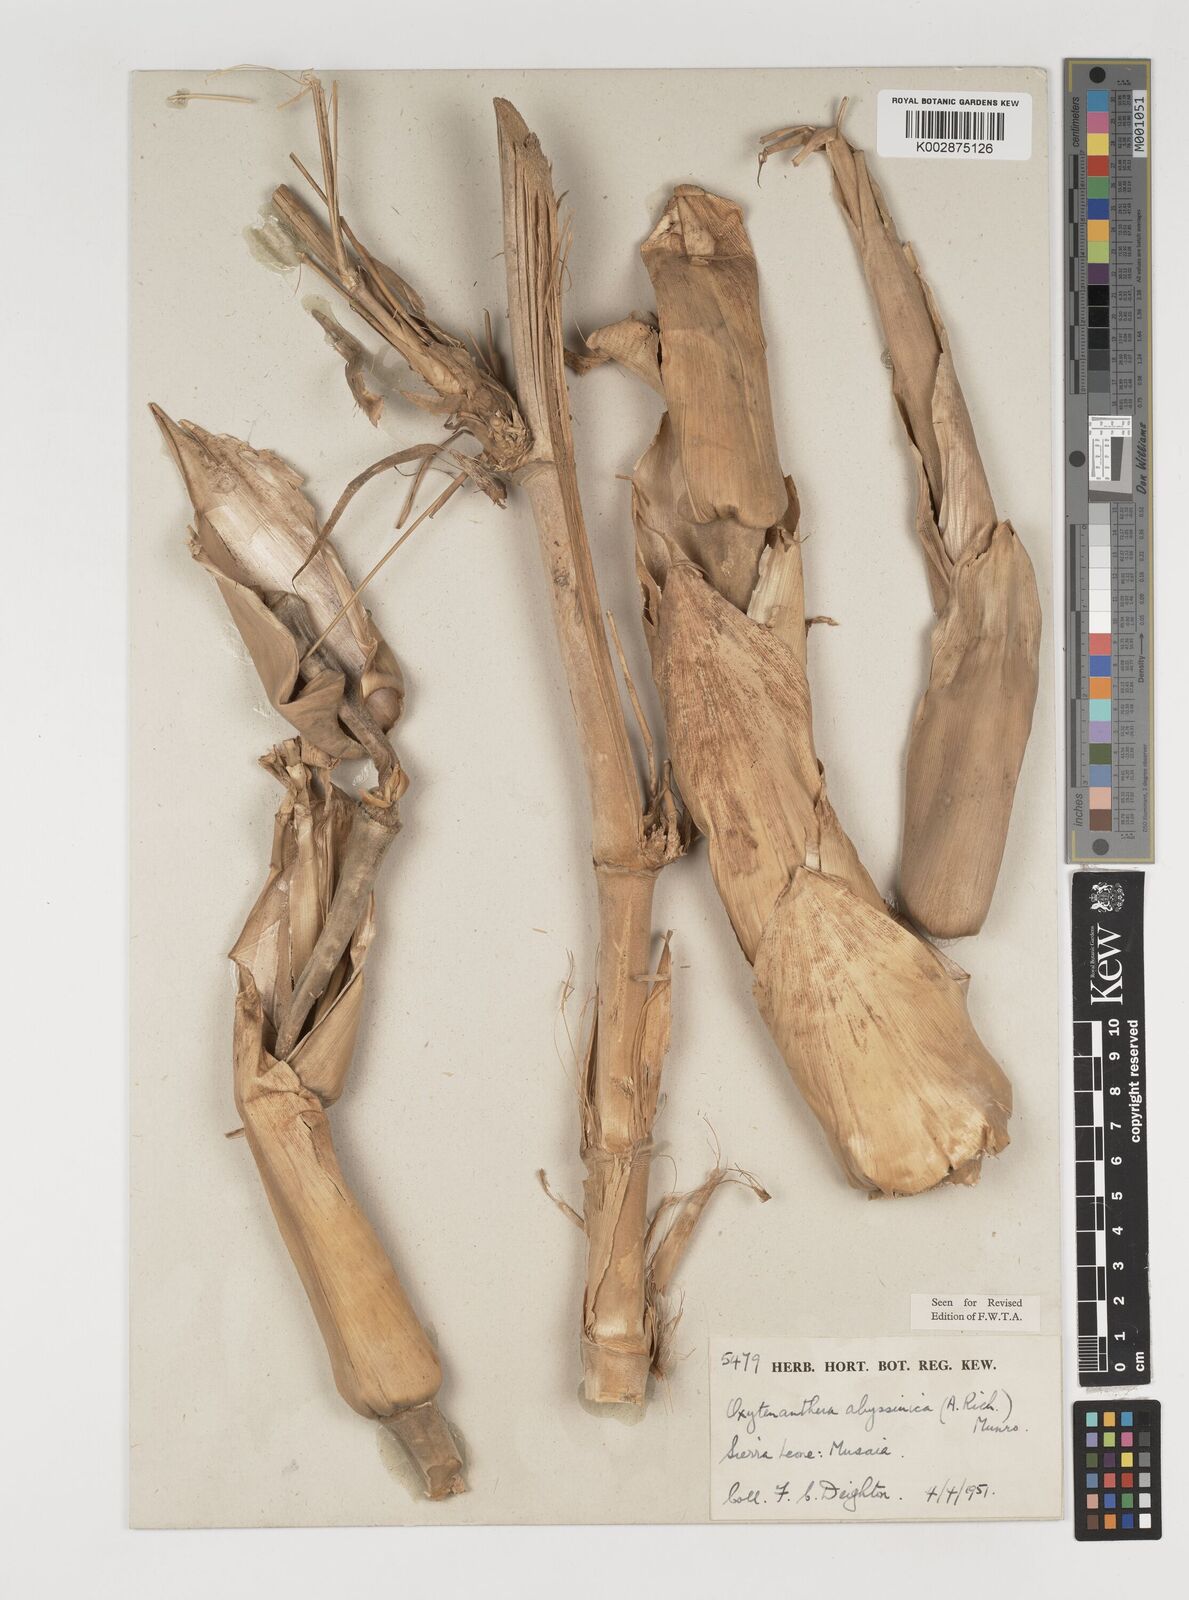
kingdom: Plantae
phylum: Tracheophyta
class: Liliopsida
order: Poales
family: Poaceae
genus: Oxytenanthera
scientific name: Oxytenanthera abyssinica
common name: Wine bamboo
